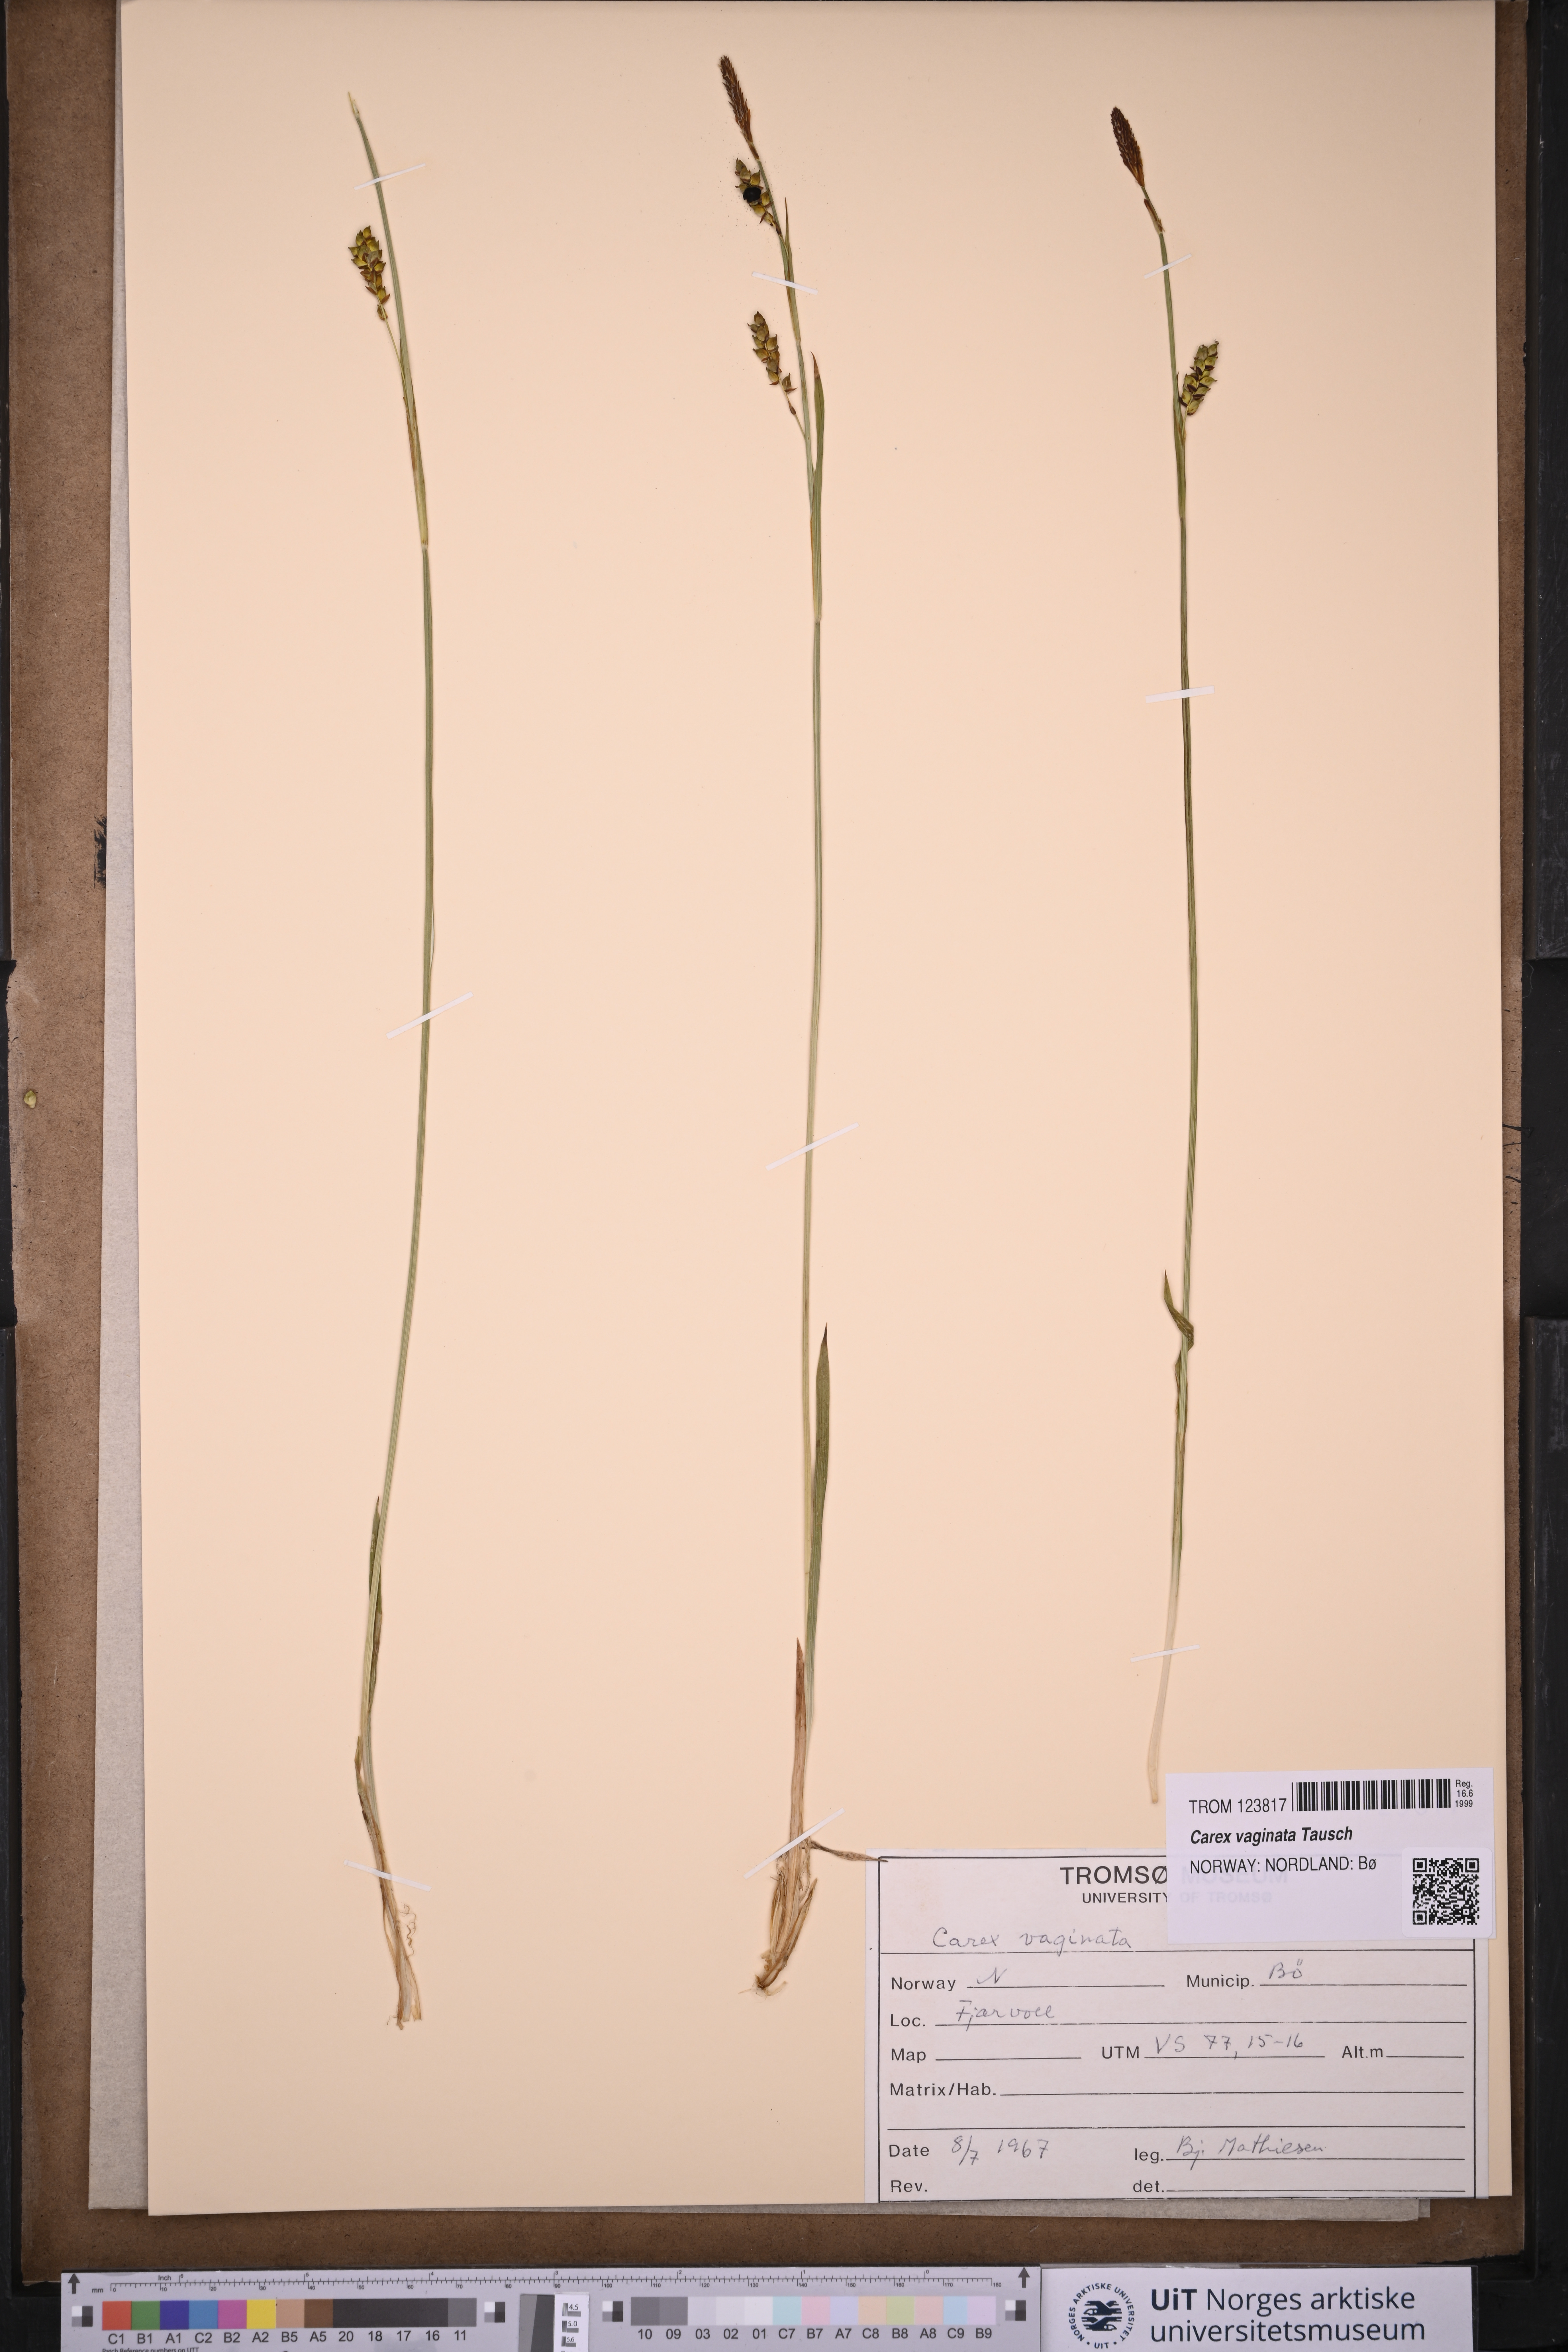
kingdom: Plantae
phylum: Tracheophyta
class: Liliopsida
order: Poales
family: Cyperaceae
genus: Carex
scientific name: Carex vaginata
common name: Sheathed sedge
